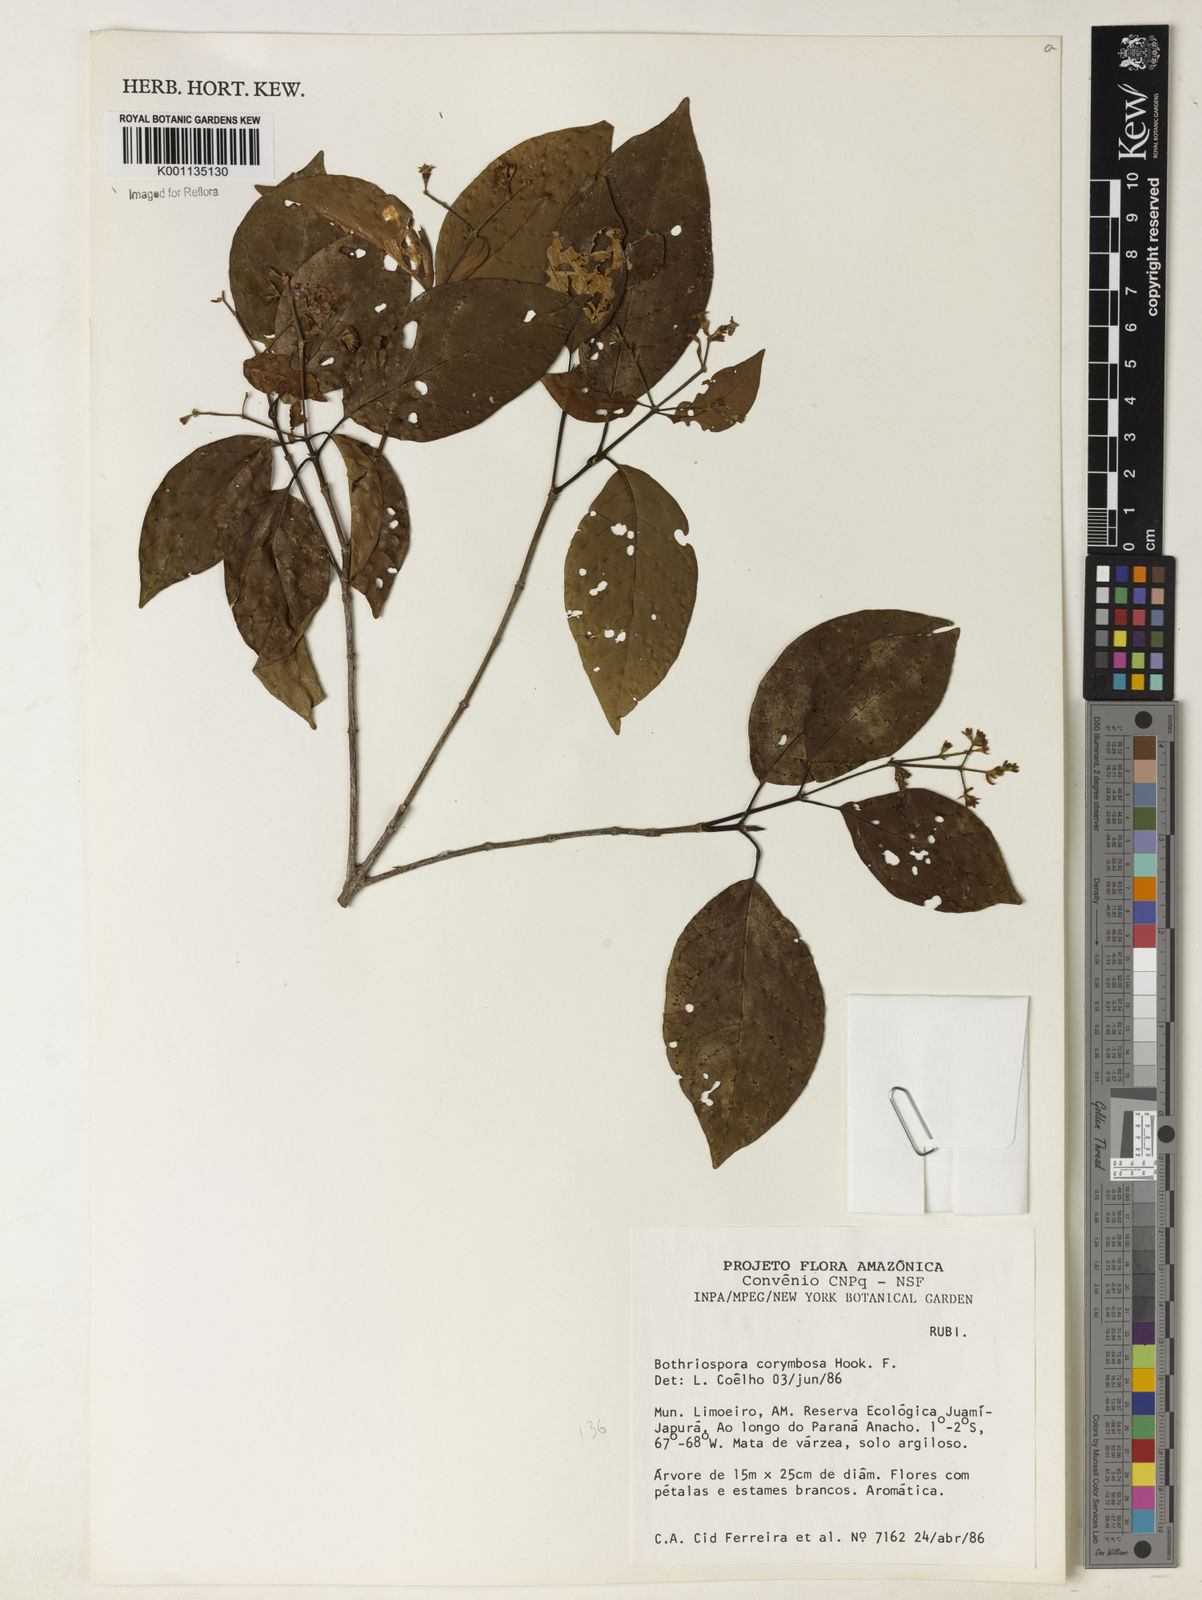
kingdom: Plantae
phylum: Tracheophyta
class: Magnoliopsida
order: Gentianales
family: Rubiaceae
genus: Bothriospora
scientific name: Bothriospora corymbosa
